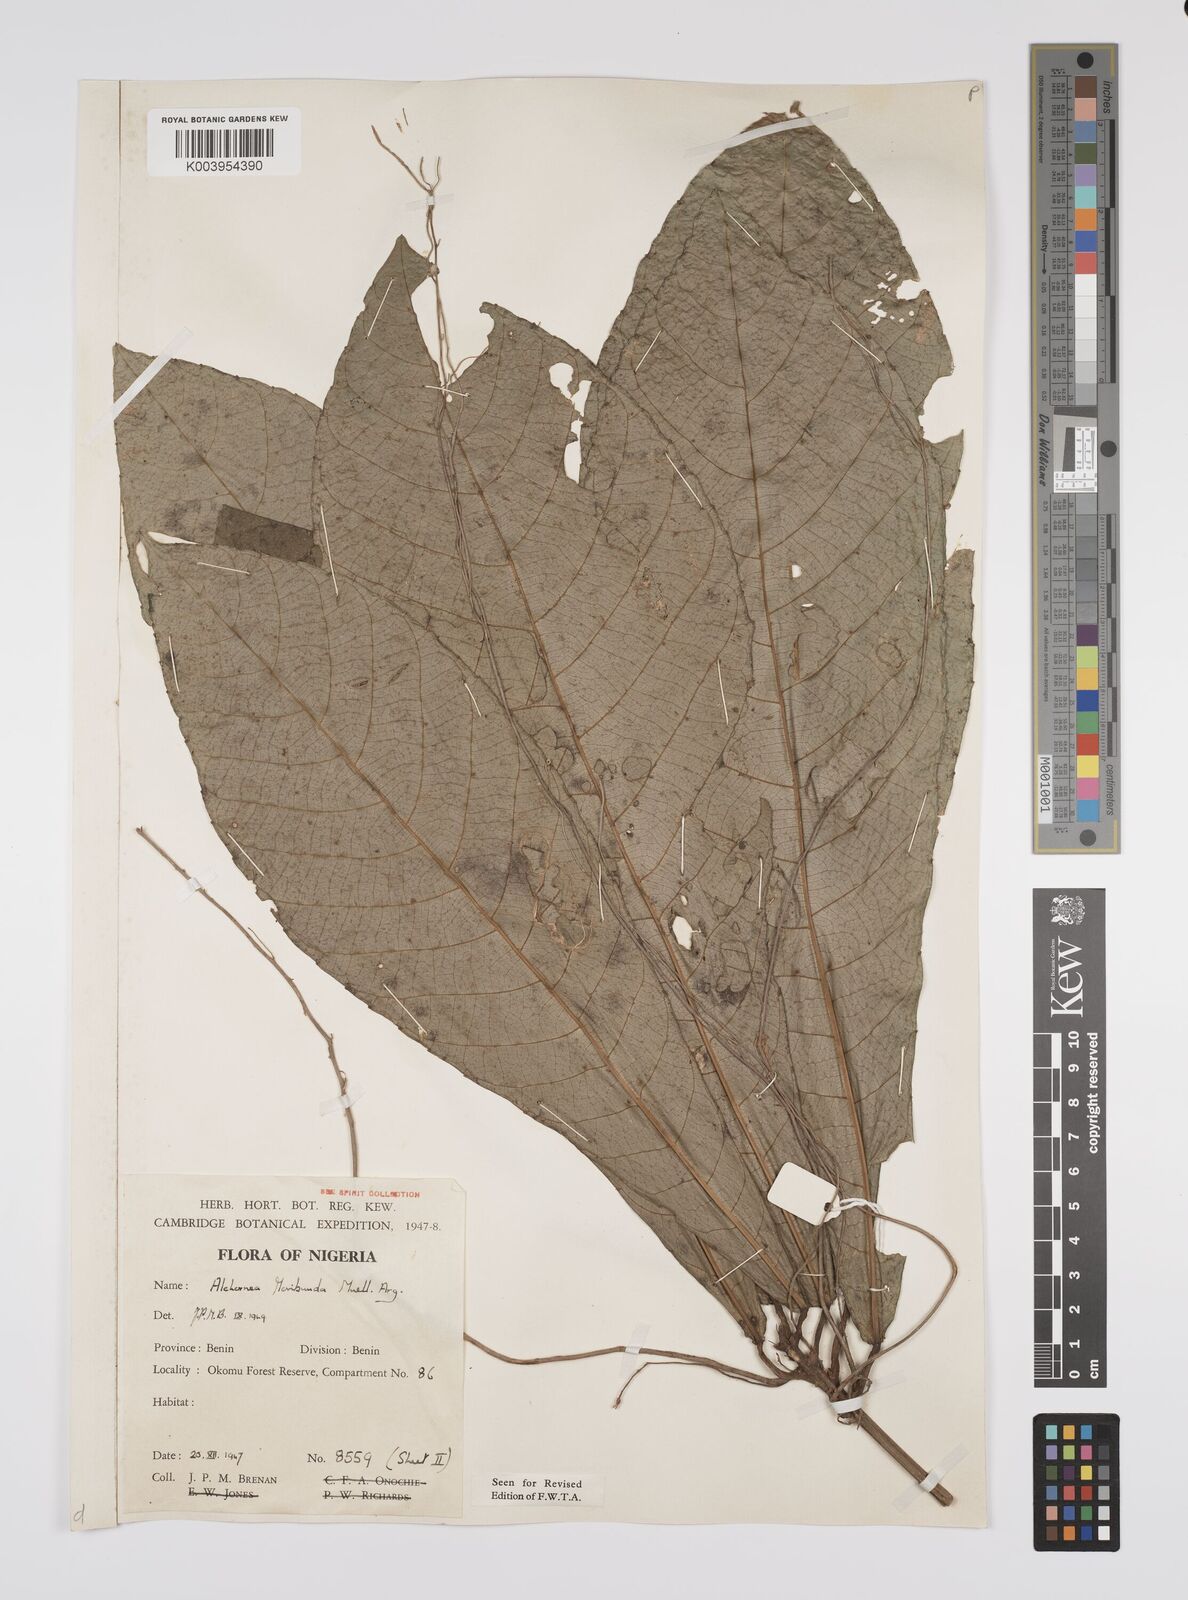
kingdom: Plantae
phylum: Tracheophyta
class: Magnoliopsida
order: Malpighiales
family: Euphorbiaceae
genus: Alchornea
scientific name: Alchornea floribunda
